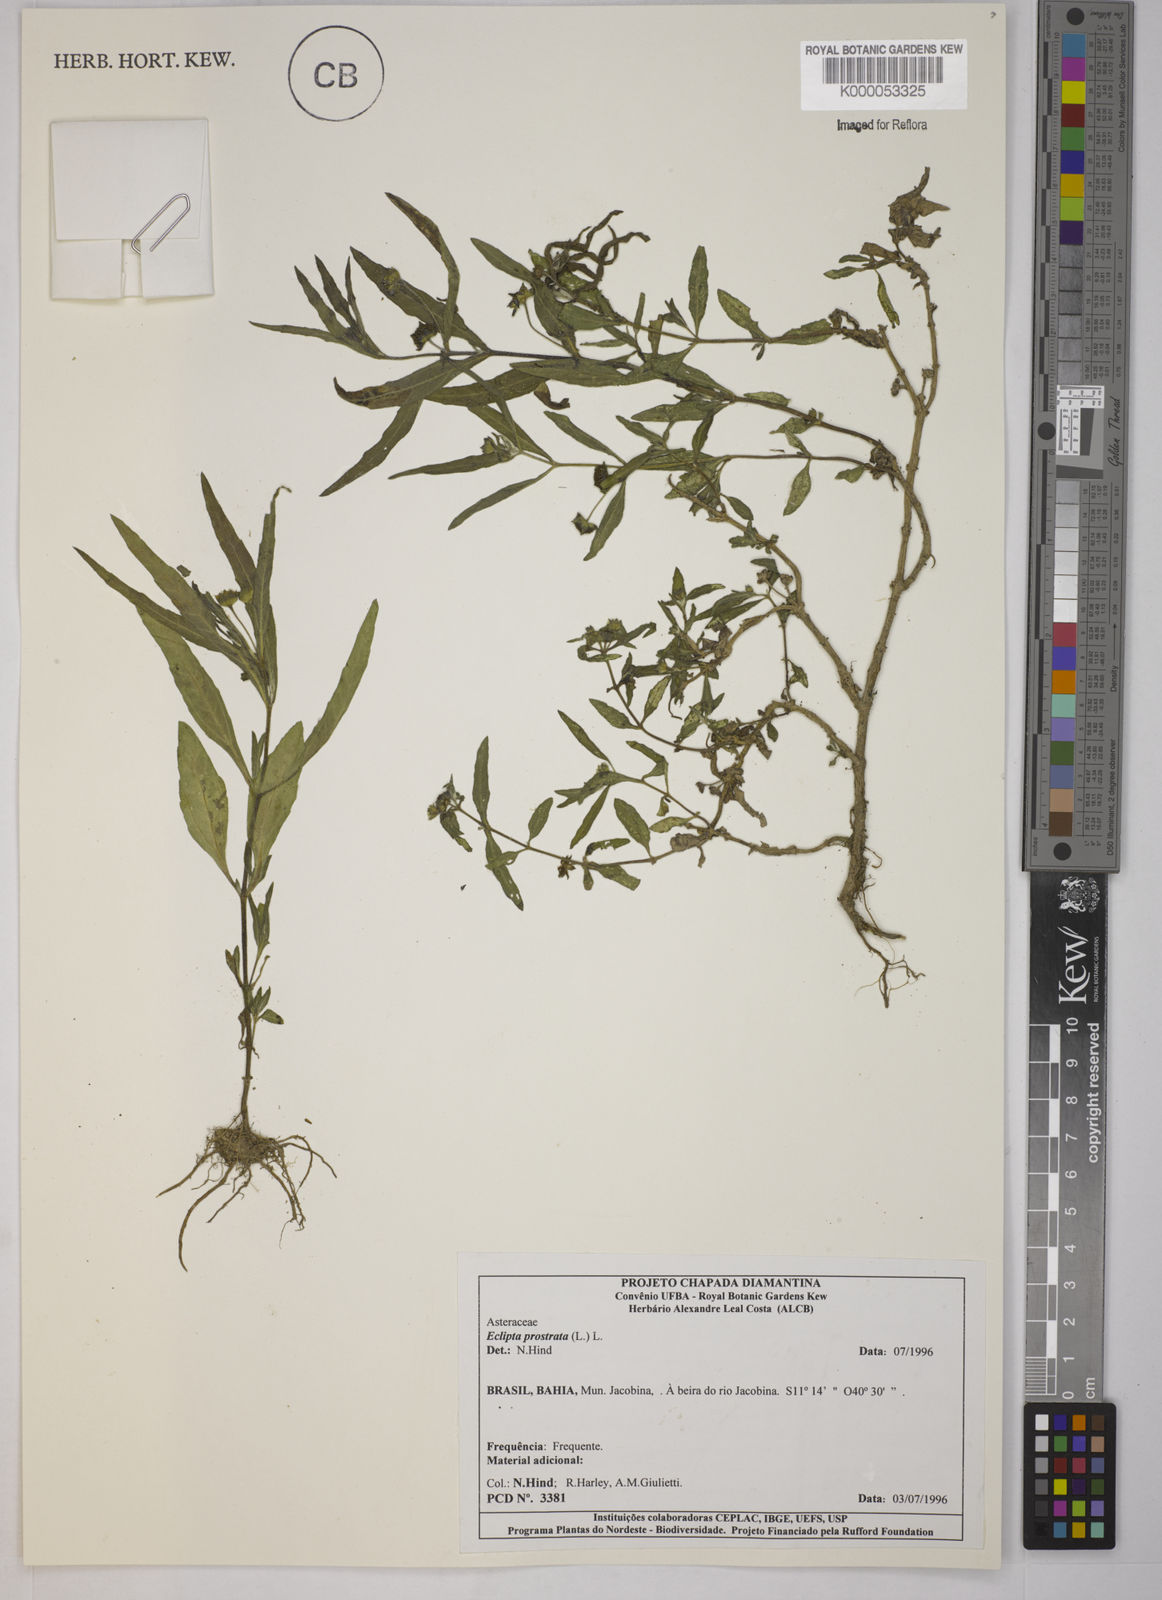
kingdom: Plantae
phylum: Tracheophyta
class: Magnoliopsida
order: Asterales
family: Asteraceae
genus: Eclipta
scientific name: Eclipta prostrata
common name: False daisy
